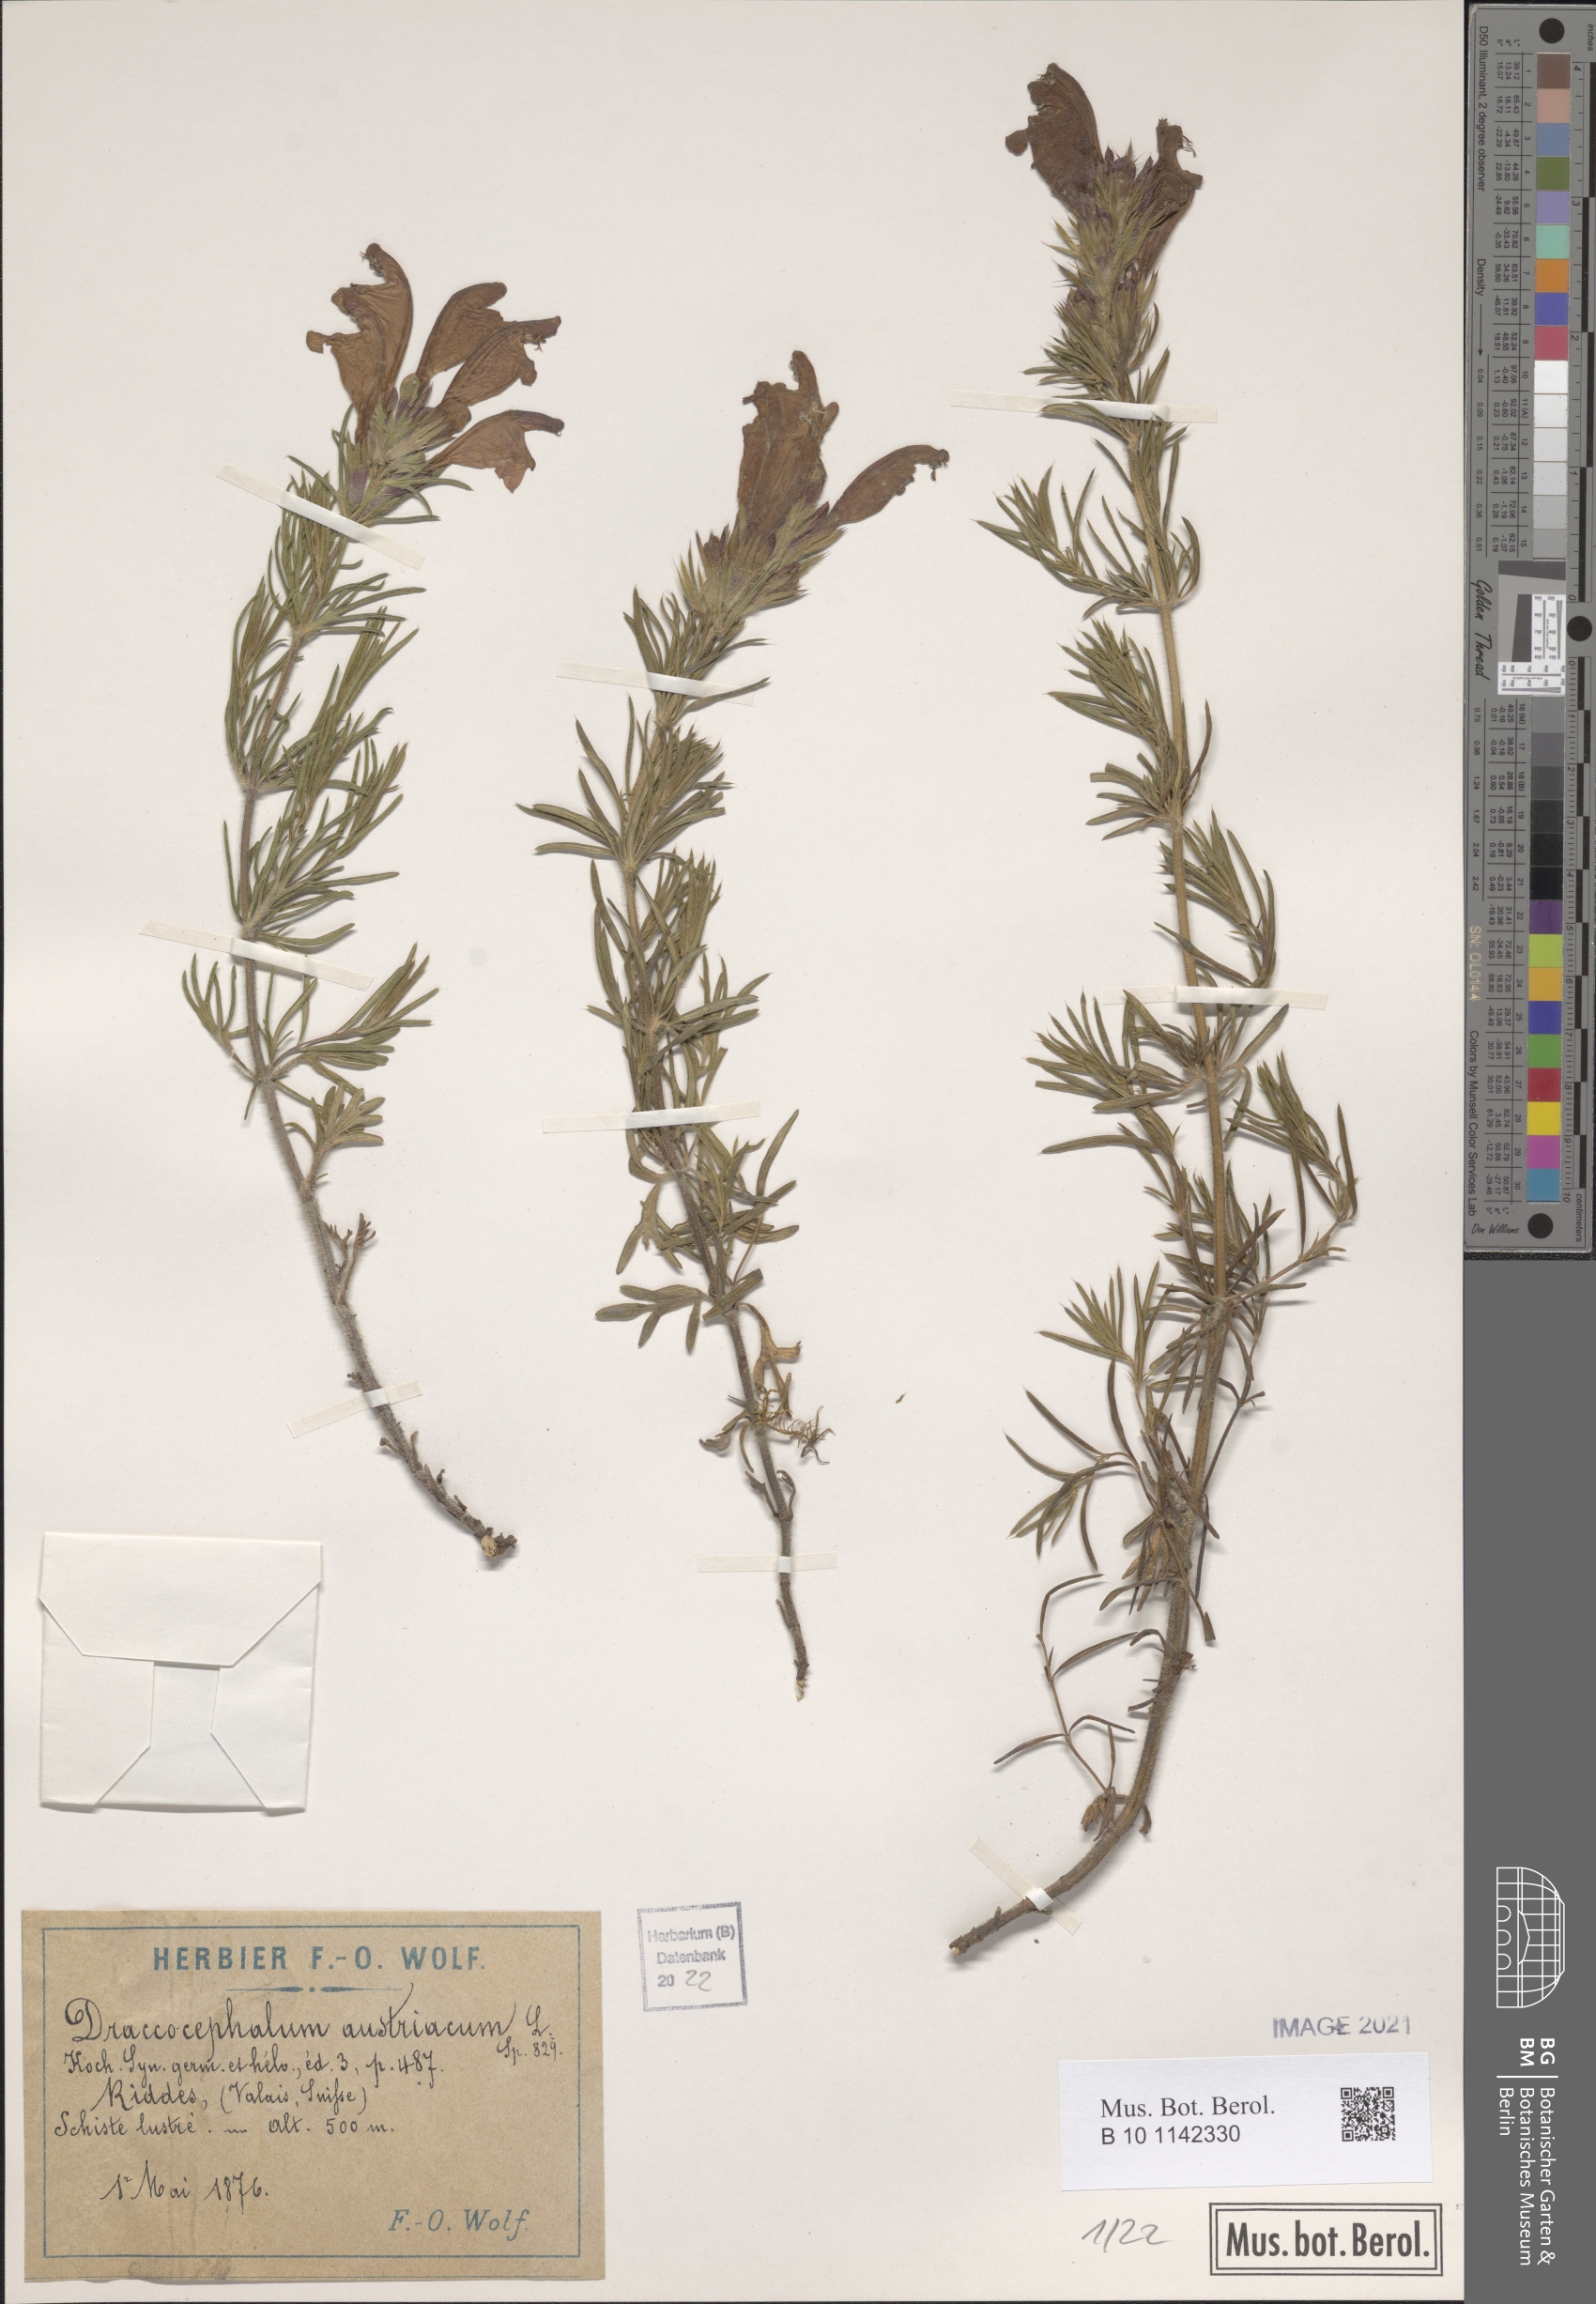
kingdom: Plantae
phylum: Tracheophyta
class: Magnoliopsida
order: Lamiales
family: Lamiaceae
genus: Dracocephalum
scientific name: Dracocephalum austriacum
